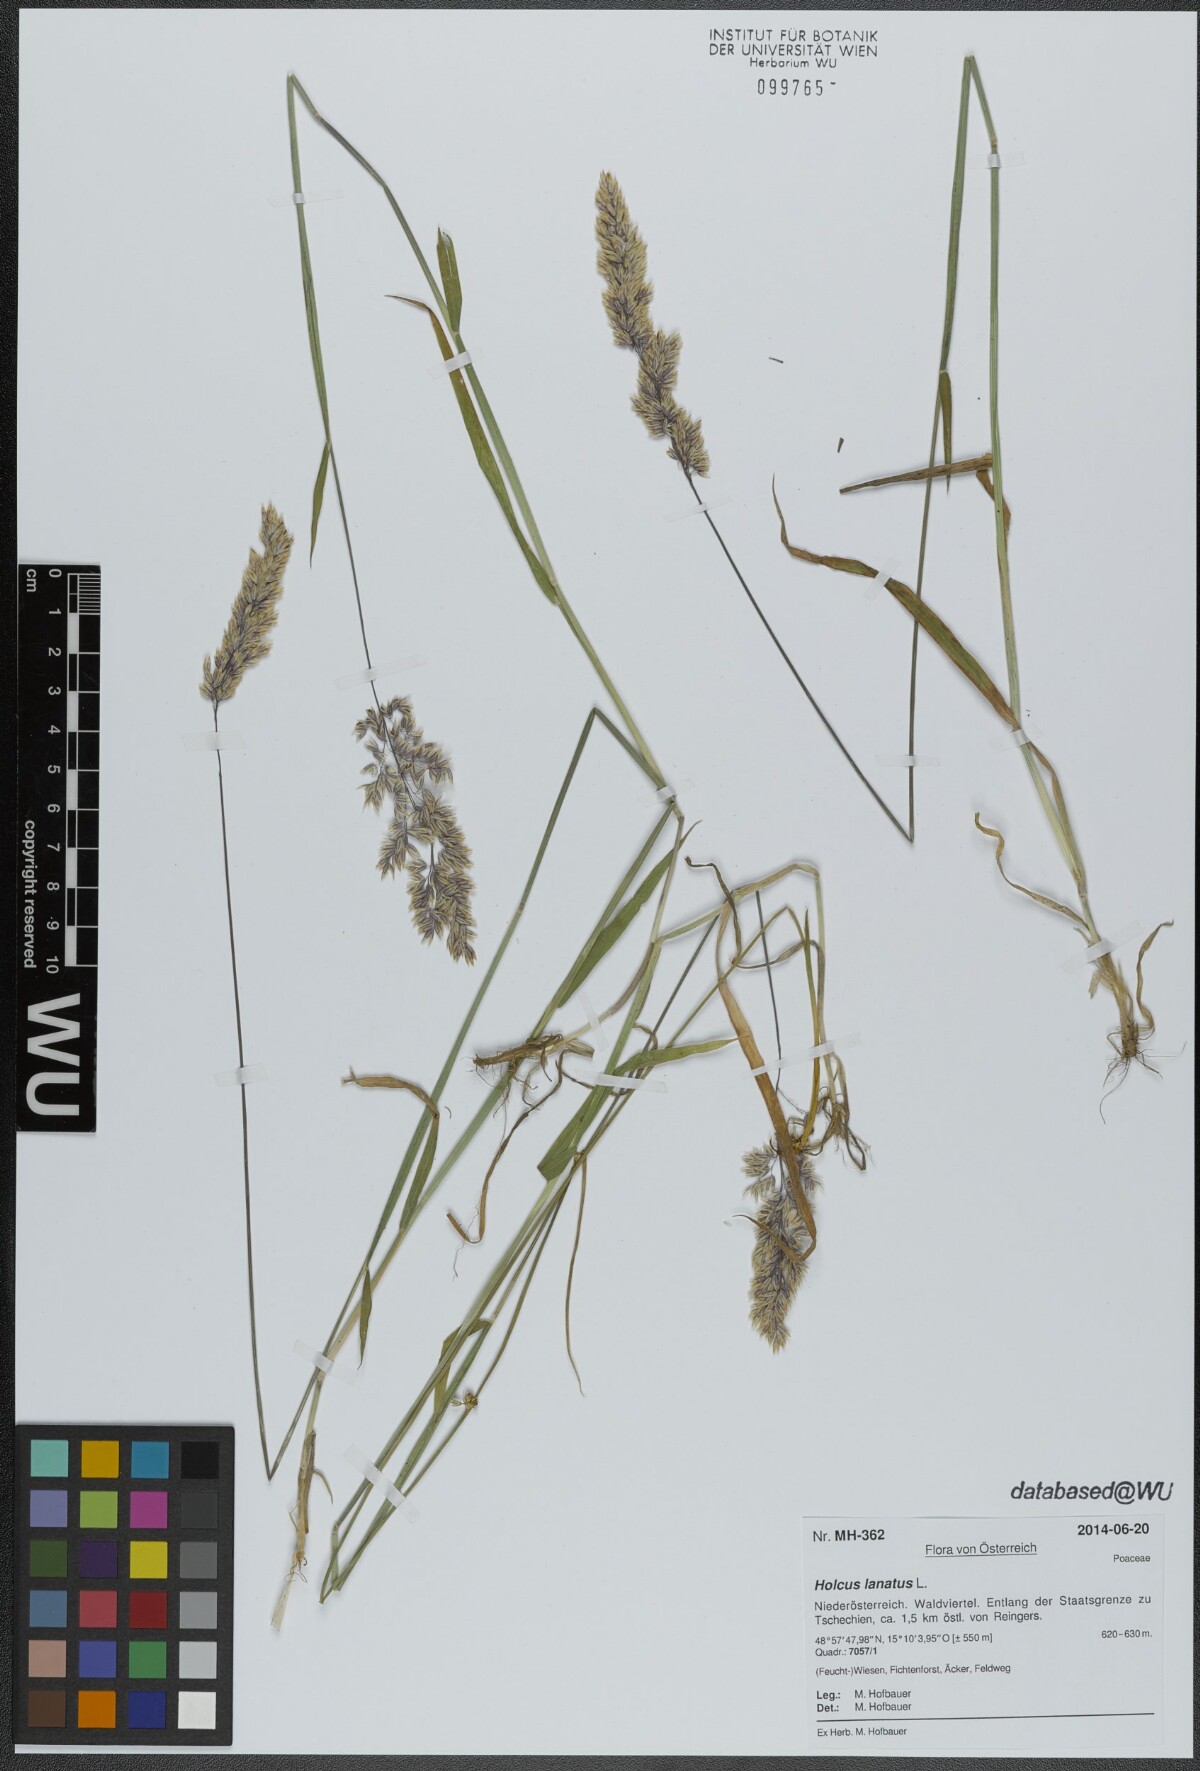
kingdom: Plantae
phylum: Tracheophyta
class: Liliopsida
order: Poales
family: Poaceae
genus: Holcus
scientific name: Holcus lanatus
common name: Yorkshire-fog
